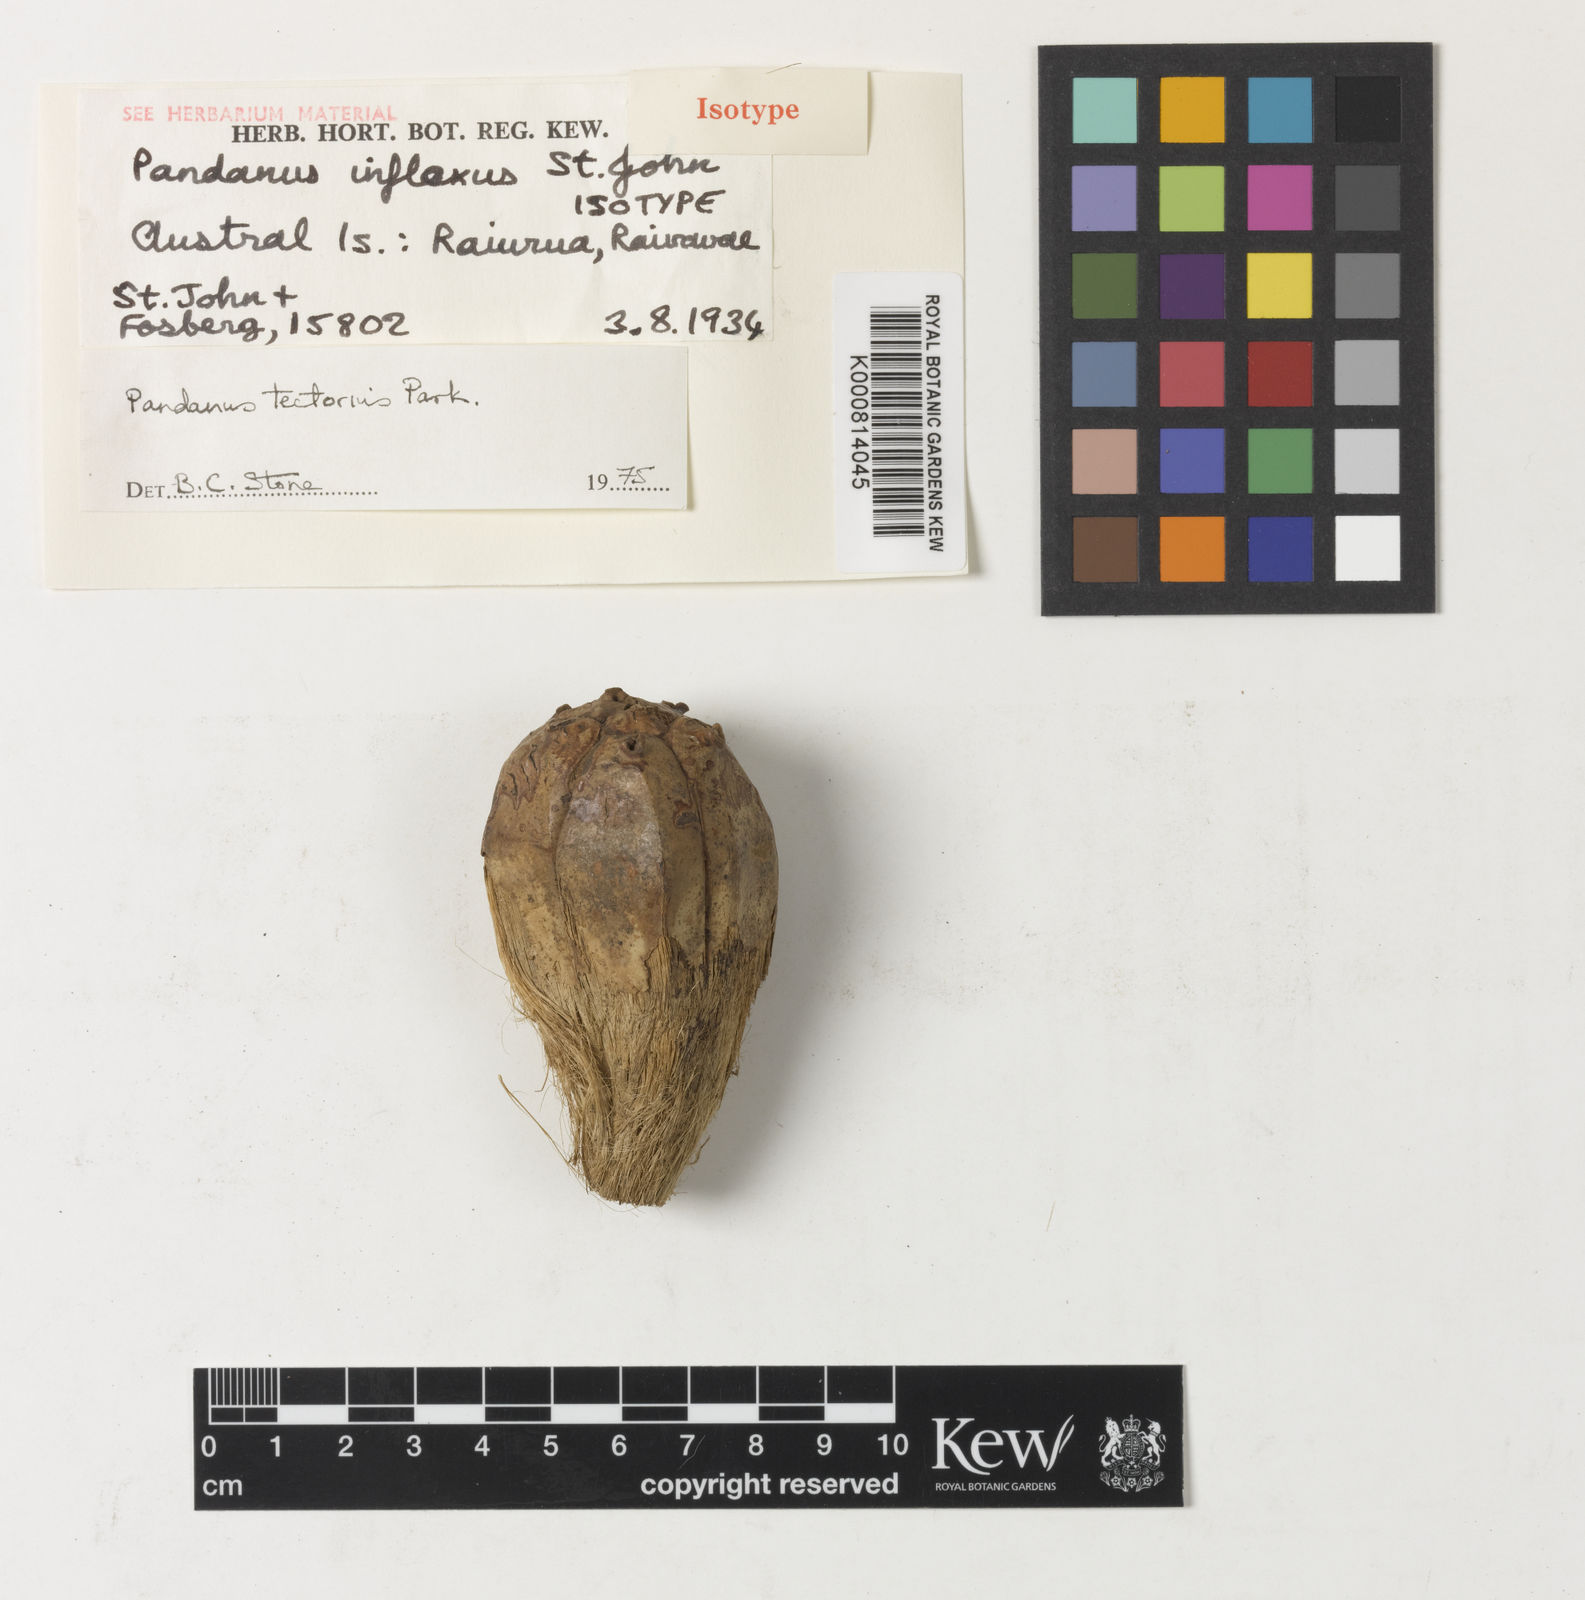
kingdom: Plantae
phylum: Tracheophyta
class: Liliopsida
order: Pandanales
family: Pandanaceae
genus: Pandanus
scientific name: Pandanus
